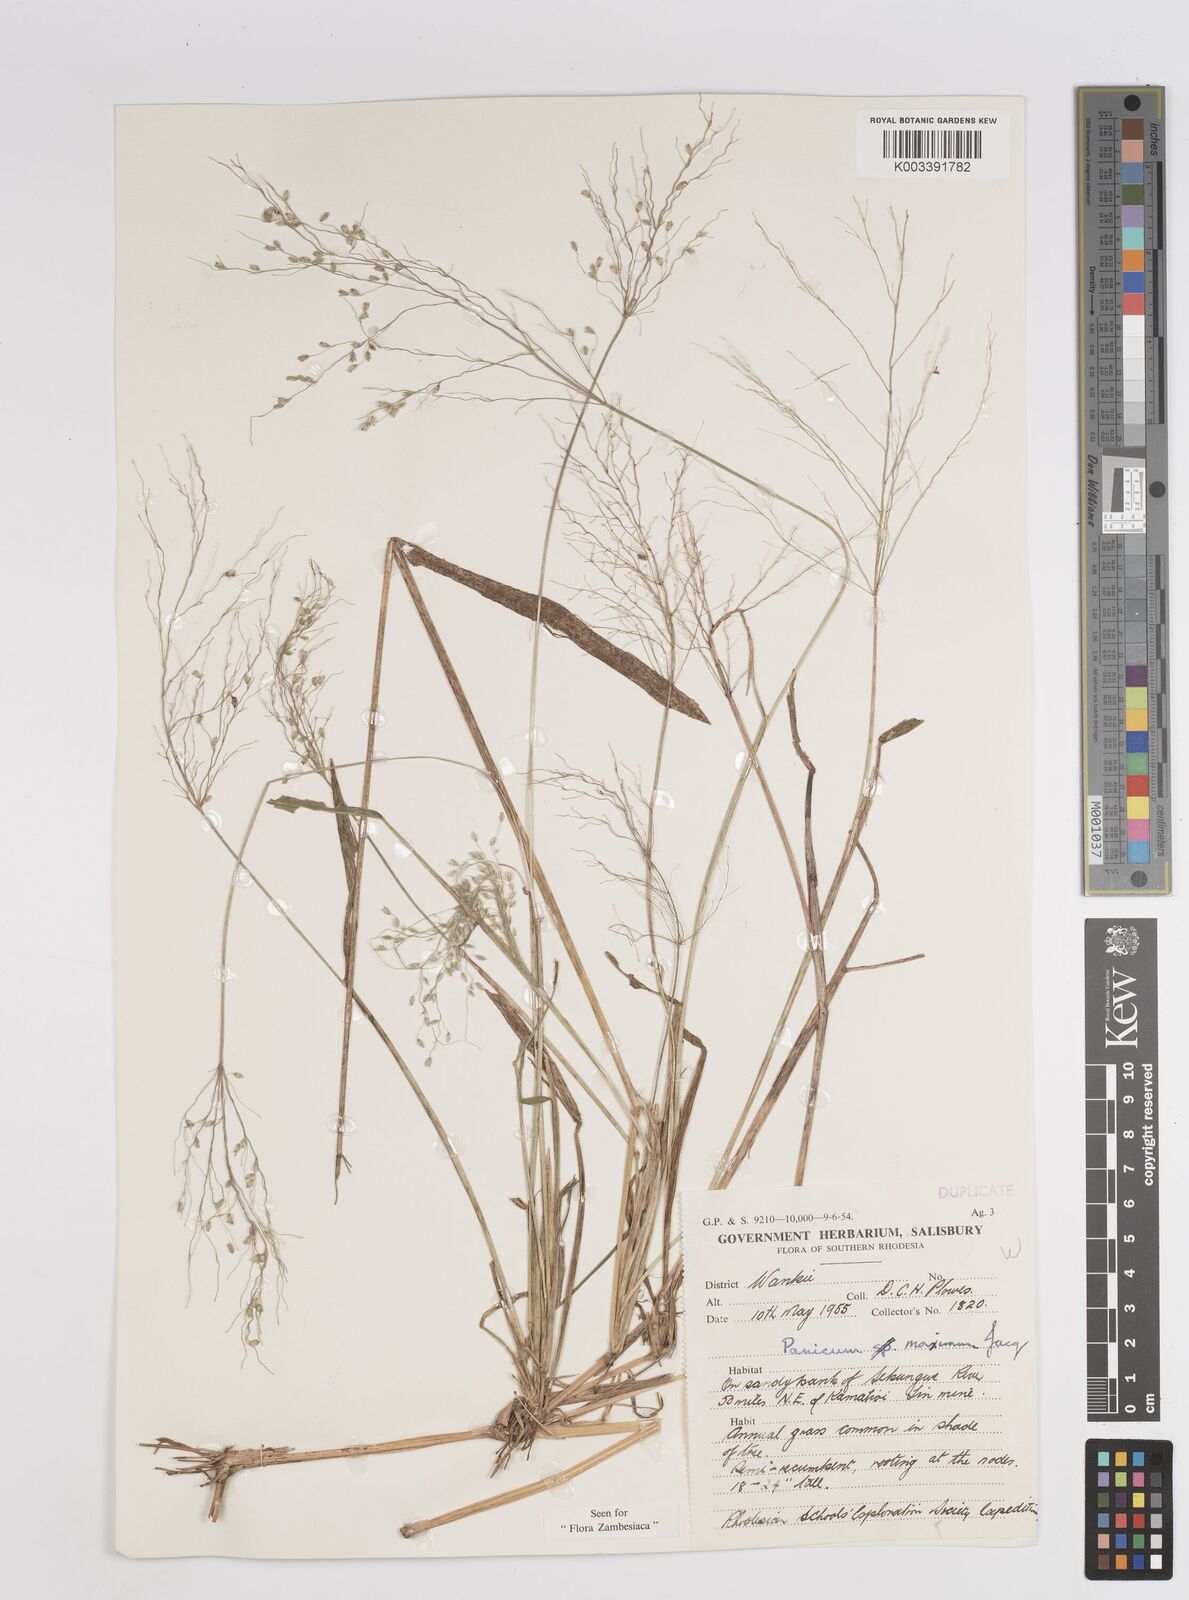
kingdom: Plantae
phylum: Tracheophyta
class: Liliopsida
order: Poales
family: Poaceae
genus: Megathyrsus
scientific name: Megathyrsus maximus
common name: Guineagrass
